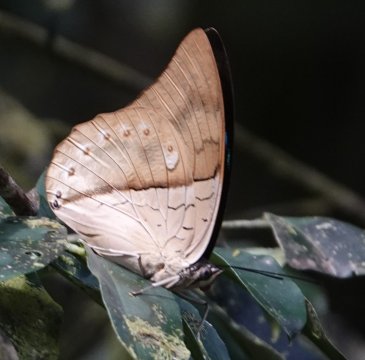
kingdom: Animalia
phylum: Arthropoda
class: Insecta
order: Lepidoptera
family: Nymphalidae
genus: Prepona
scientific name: Prepona meander
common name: White-spotted Prepona
